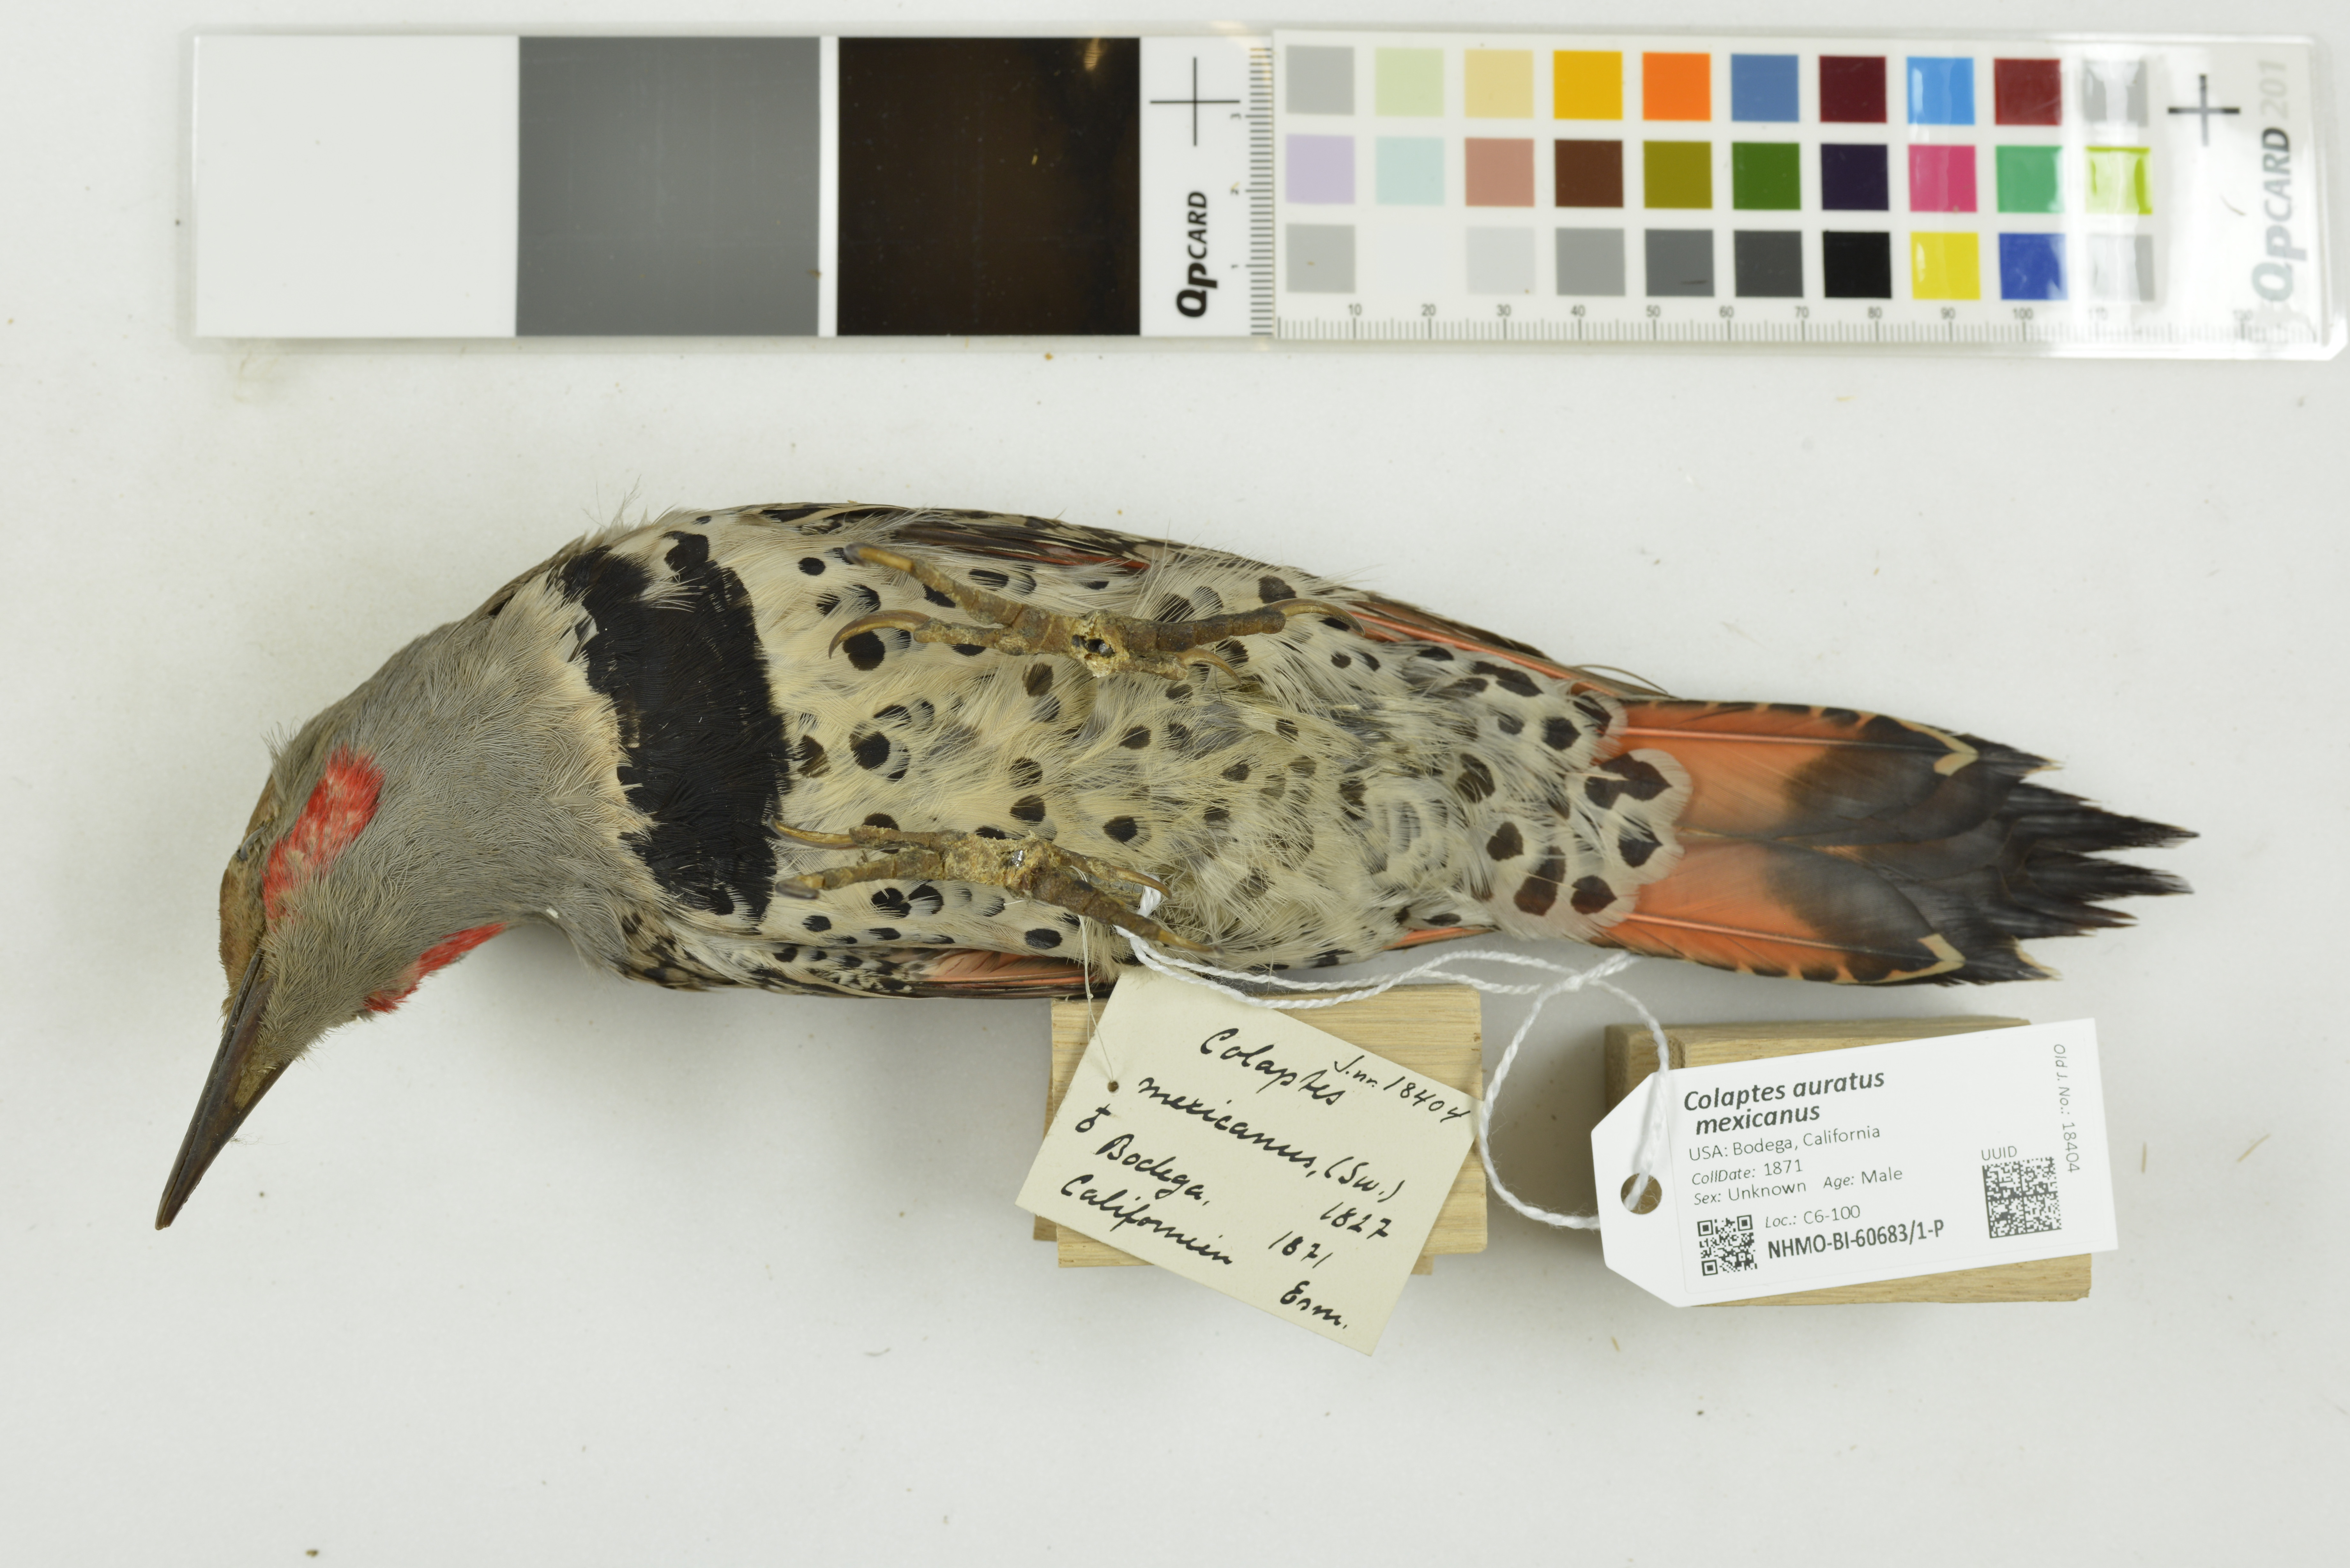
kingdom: Animalia
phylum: Chordata
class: Aves
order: Piciformes
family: Picidae
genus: Colaptes
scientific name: Colaptes auratus
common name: Northern flicker
